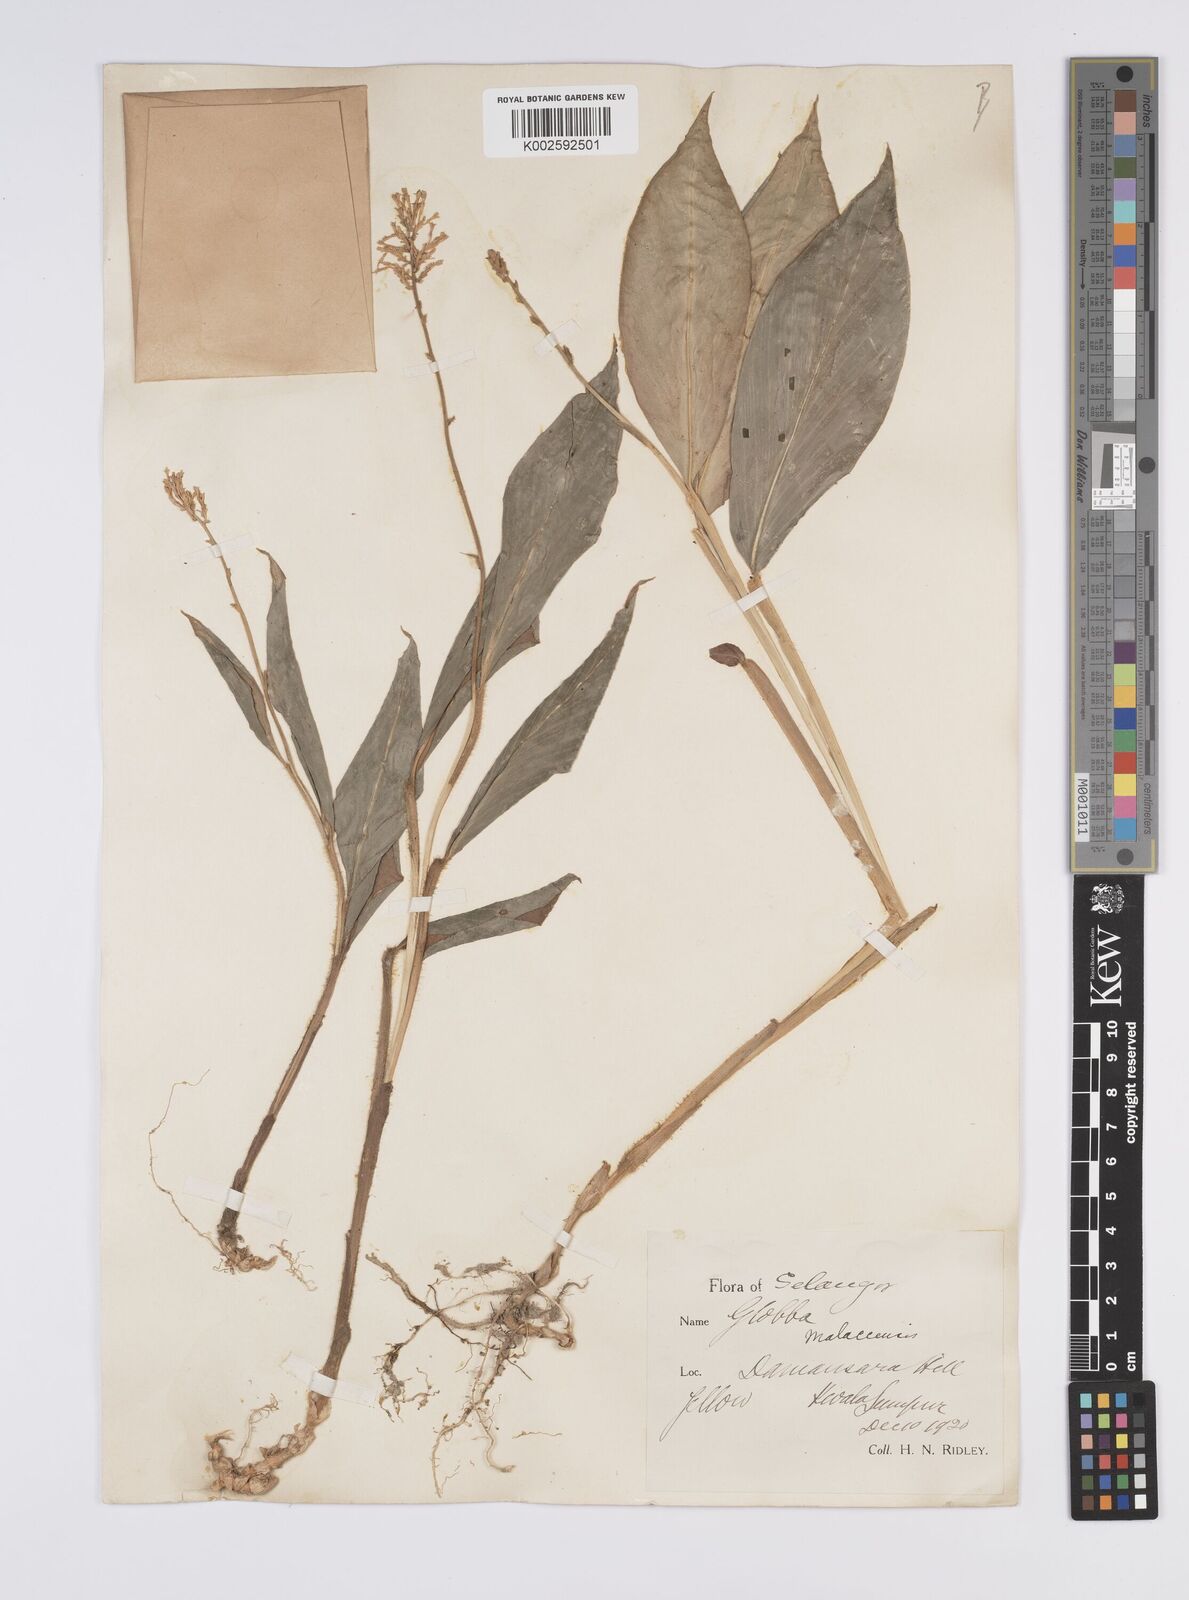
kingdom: Plantae
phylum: Tracheophyta
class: Liliopsida
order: Zingiberales
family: Zingiberaceae
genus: Globba
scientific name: Globba aurantiaca
